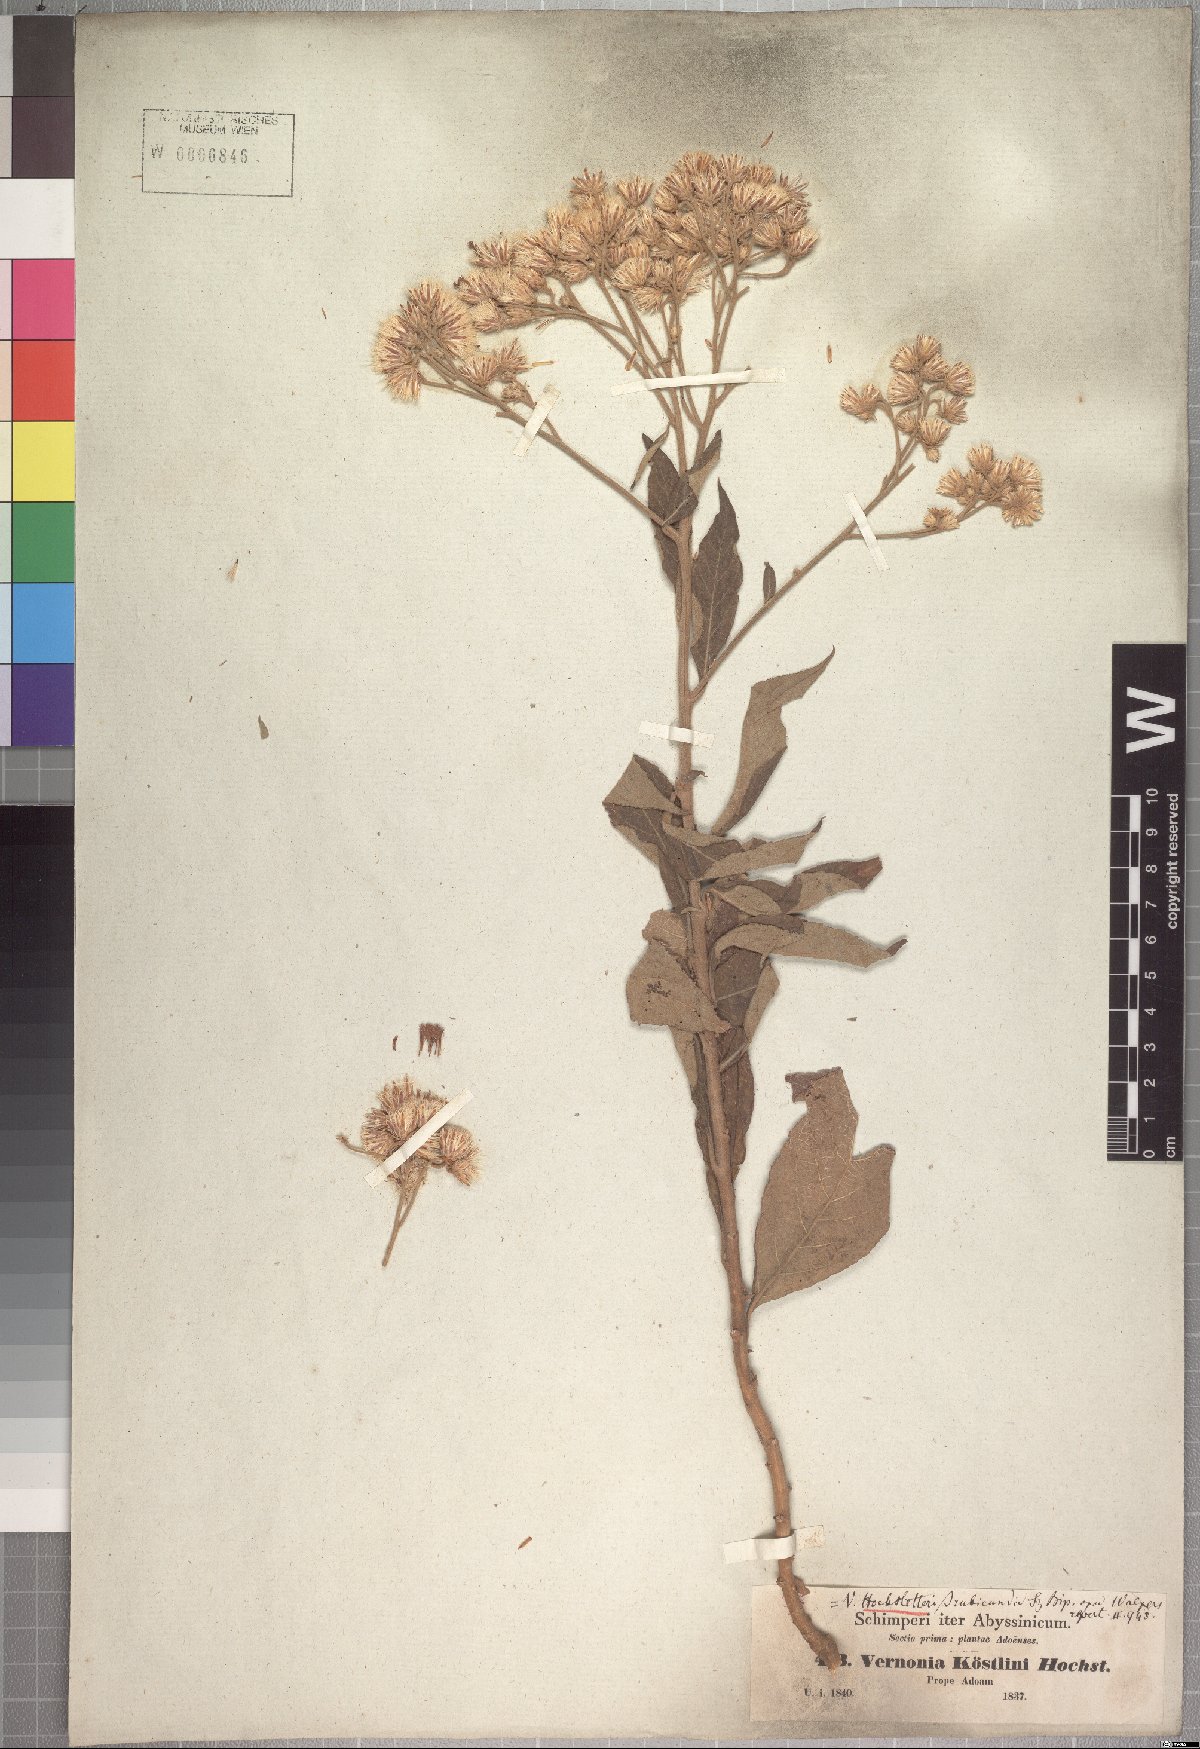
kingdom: Plantae
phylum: Tracheophyta
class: Magnoliopsida
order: Asterales
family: Asteraceae
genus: Vernonia
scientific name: Vernonia hochstetteri
